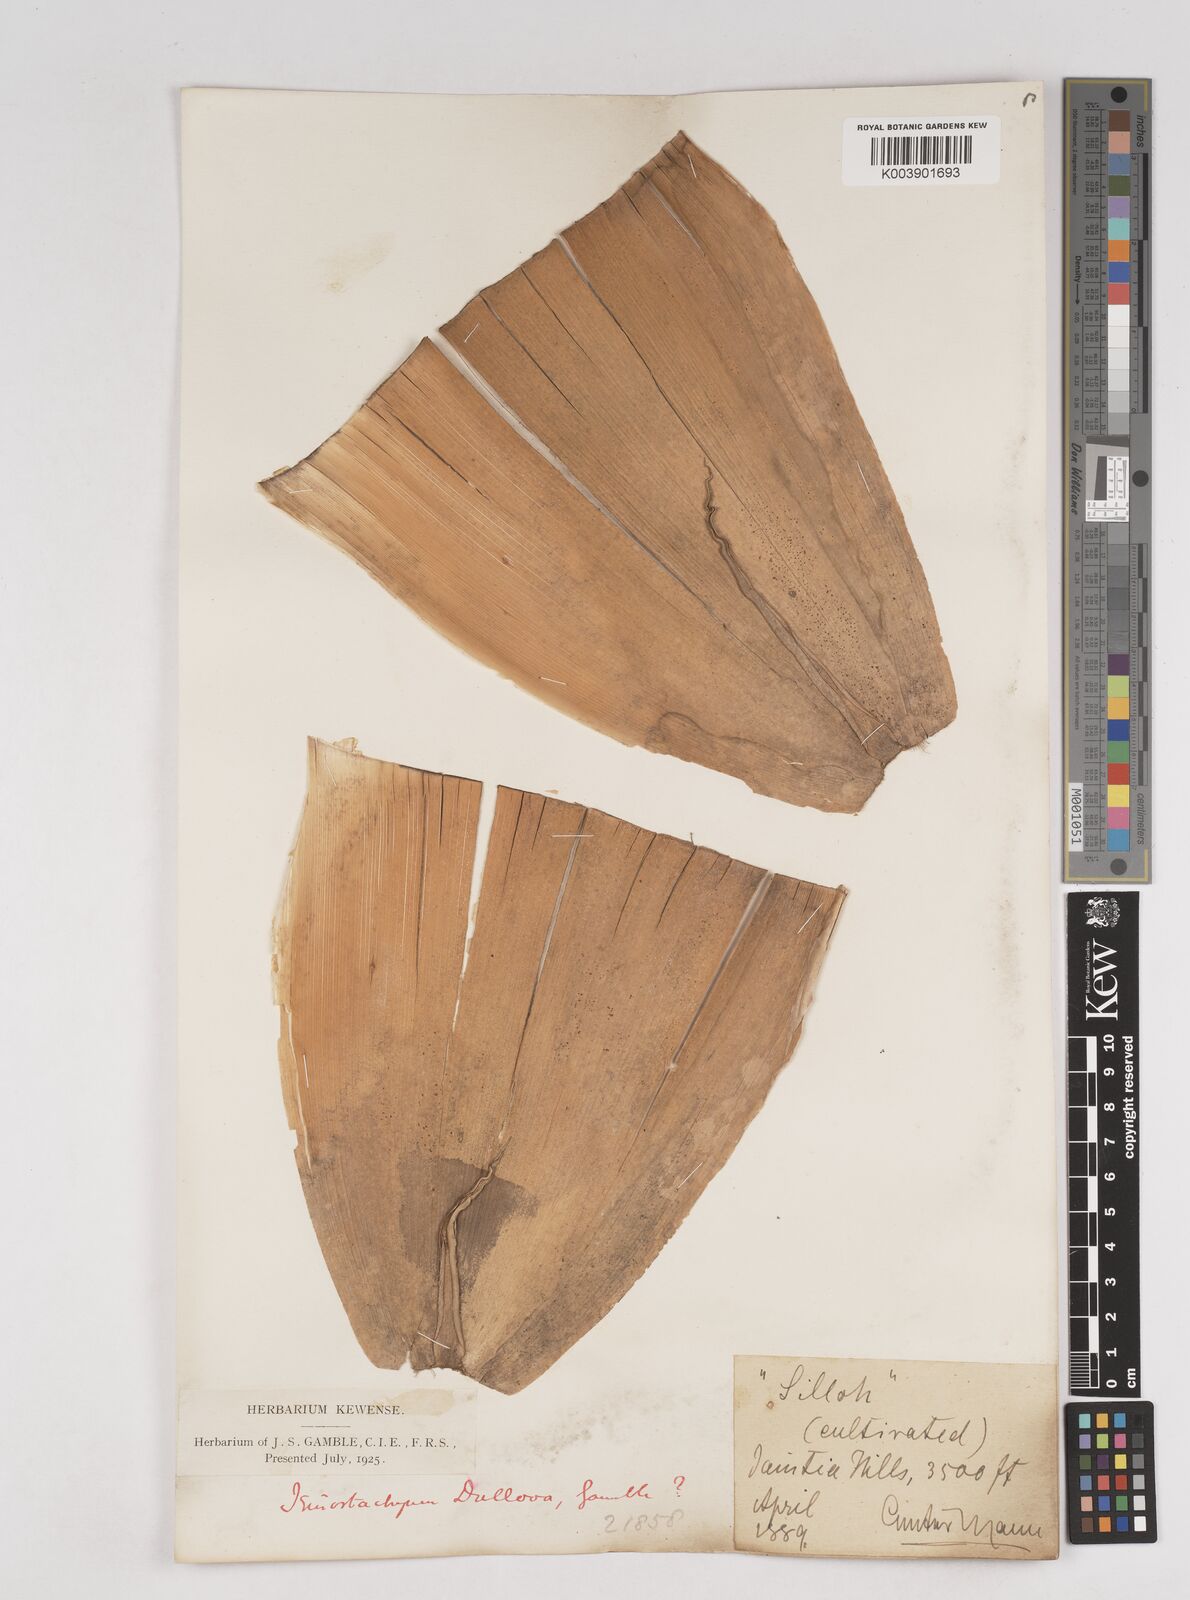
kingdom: Plantae
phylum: Tracheophyta
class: Liliopsida
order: Poales
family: Poaceae
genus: Schizostachyum
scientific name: Schizostachyum dullooa
